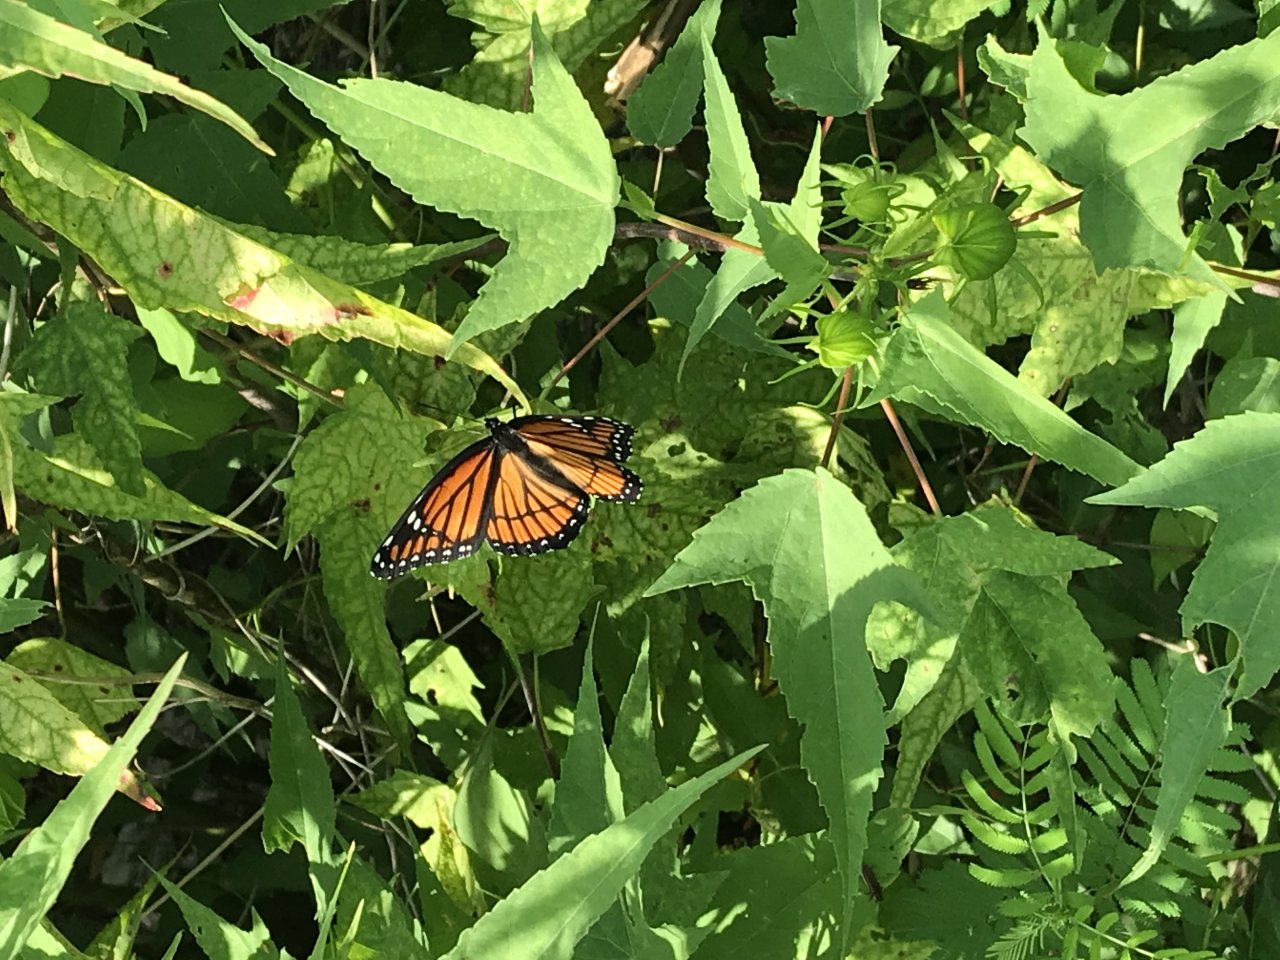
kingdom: Animalia
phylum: Arthropoda
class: Insecta
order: Lepidoptera
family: Nymphalidae
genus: Limenitis
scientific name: Limenitis archippus
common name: Viceroy
